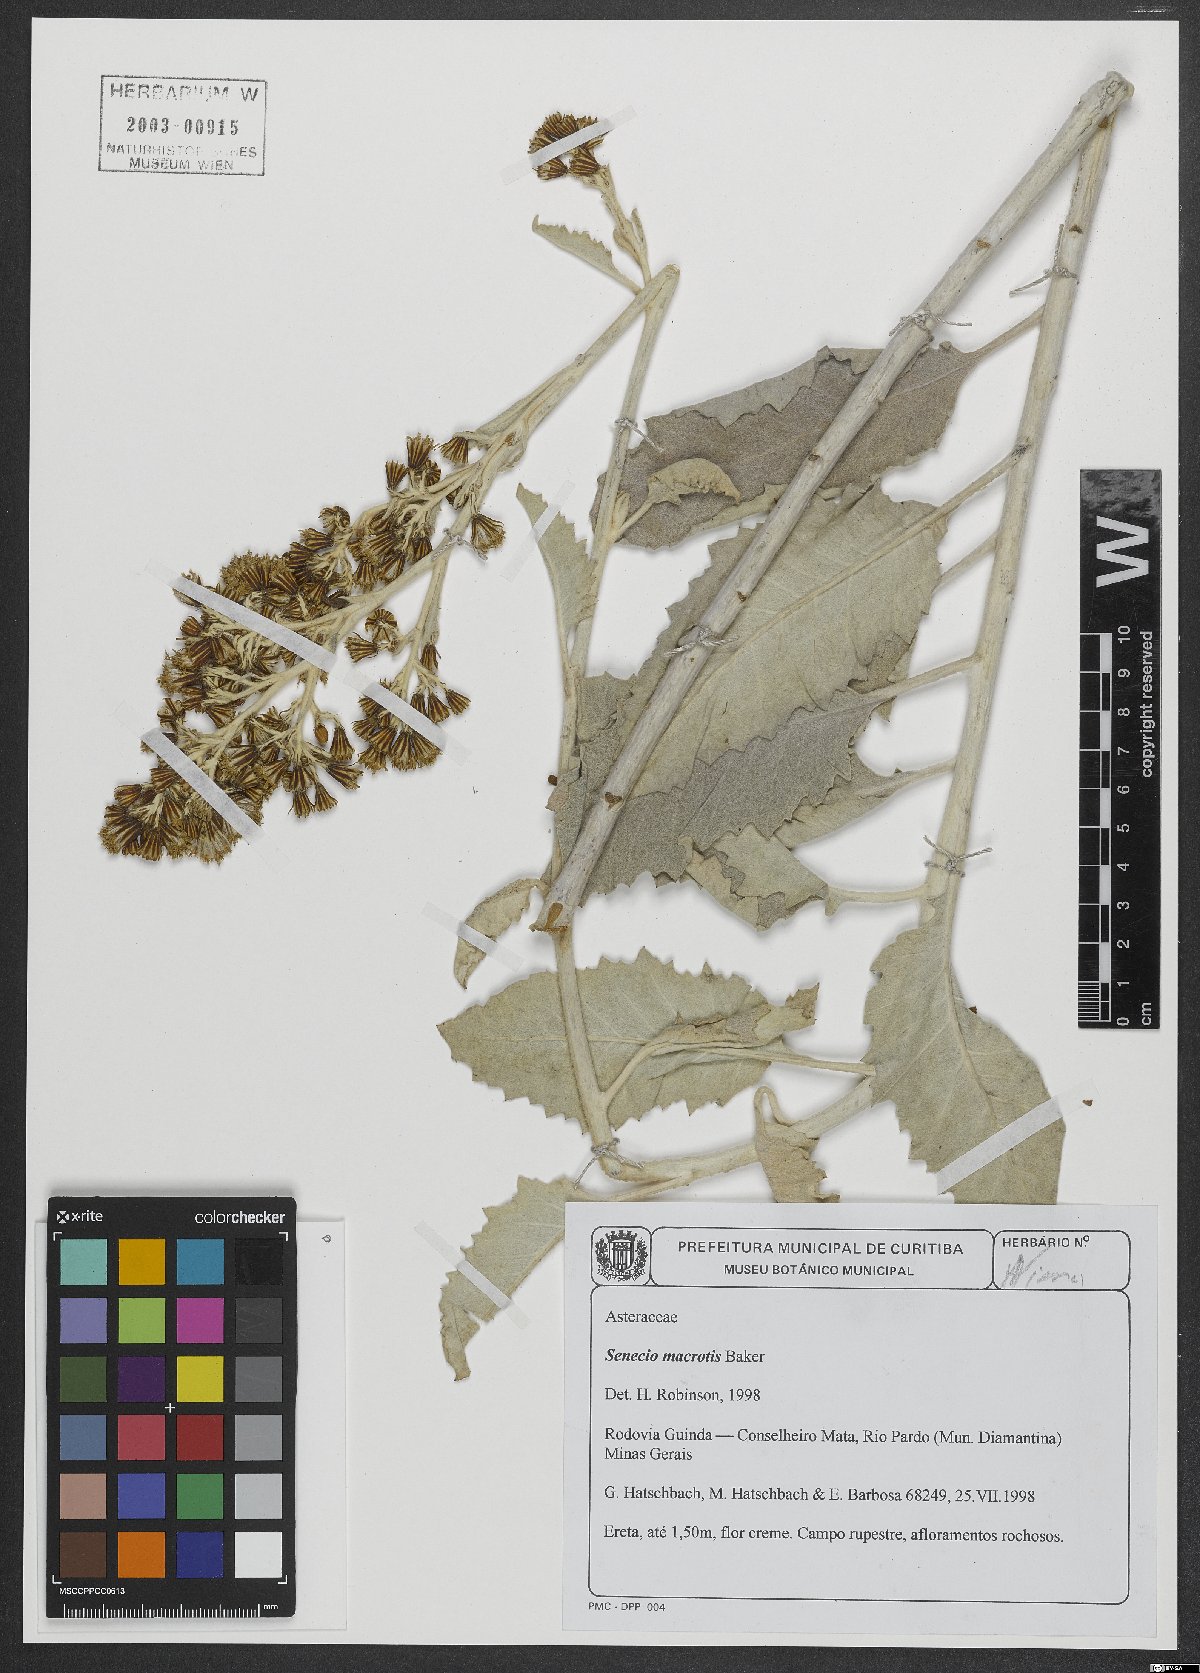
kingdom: Plantae
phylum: Tracheophyta
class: Magnoliopsida
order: Asterales
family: Asteraceae
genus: Senecio
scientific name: Senecio macrotis
